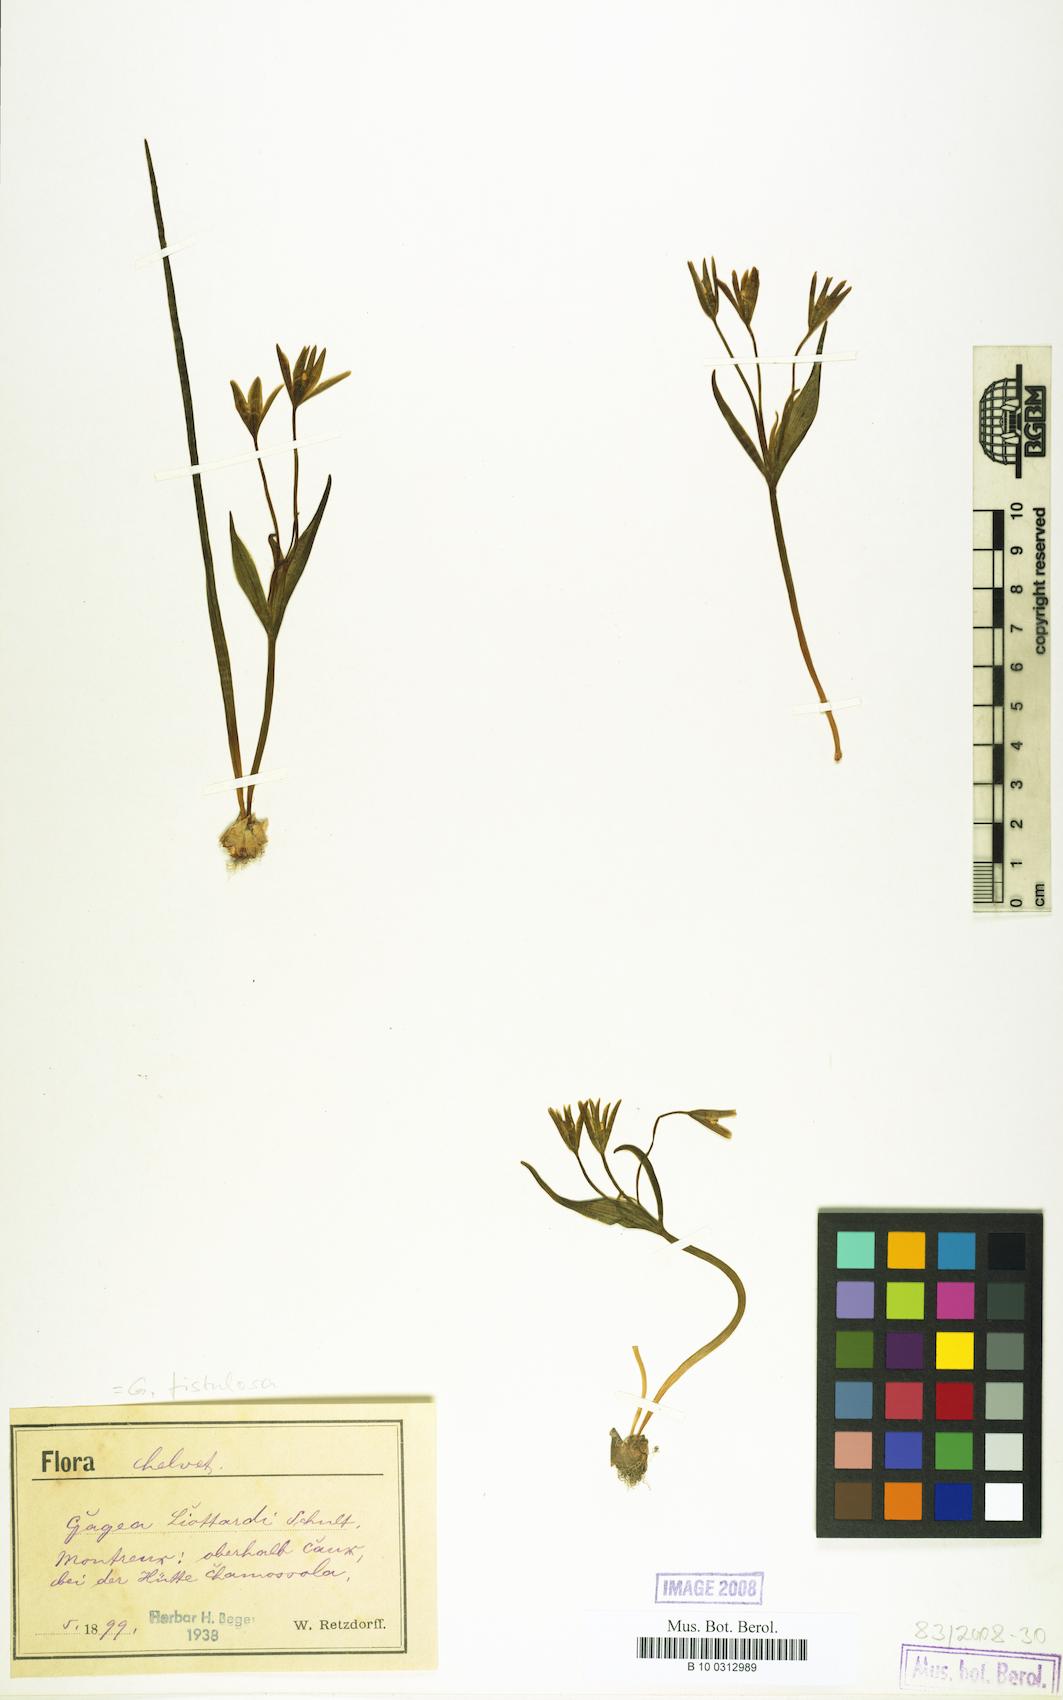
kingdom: Plantae
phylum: Tracheophyta
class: Liliopsida
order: Liliales
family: Liliaceae
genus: Gagea
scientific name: Gagea
